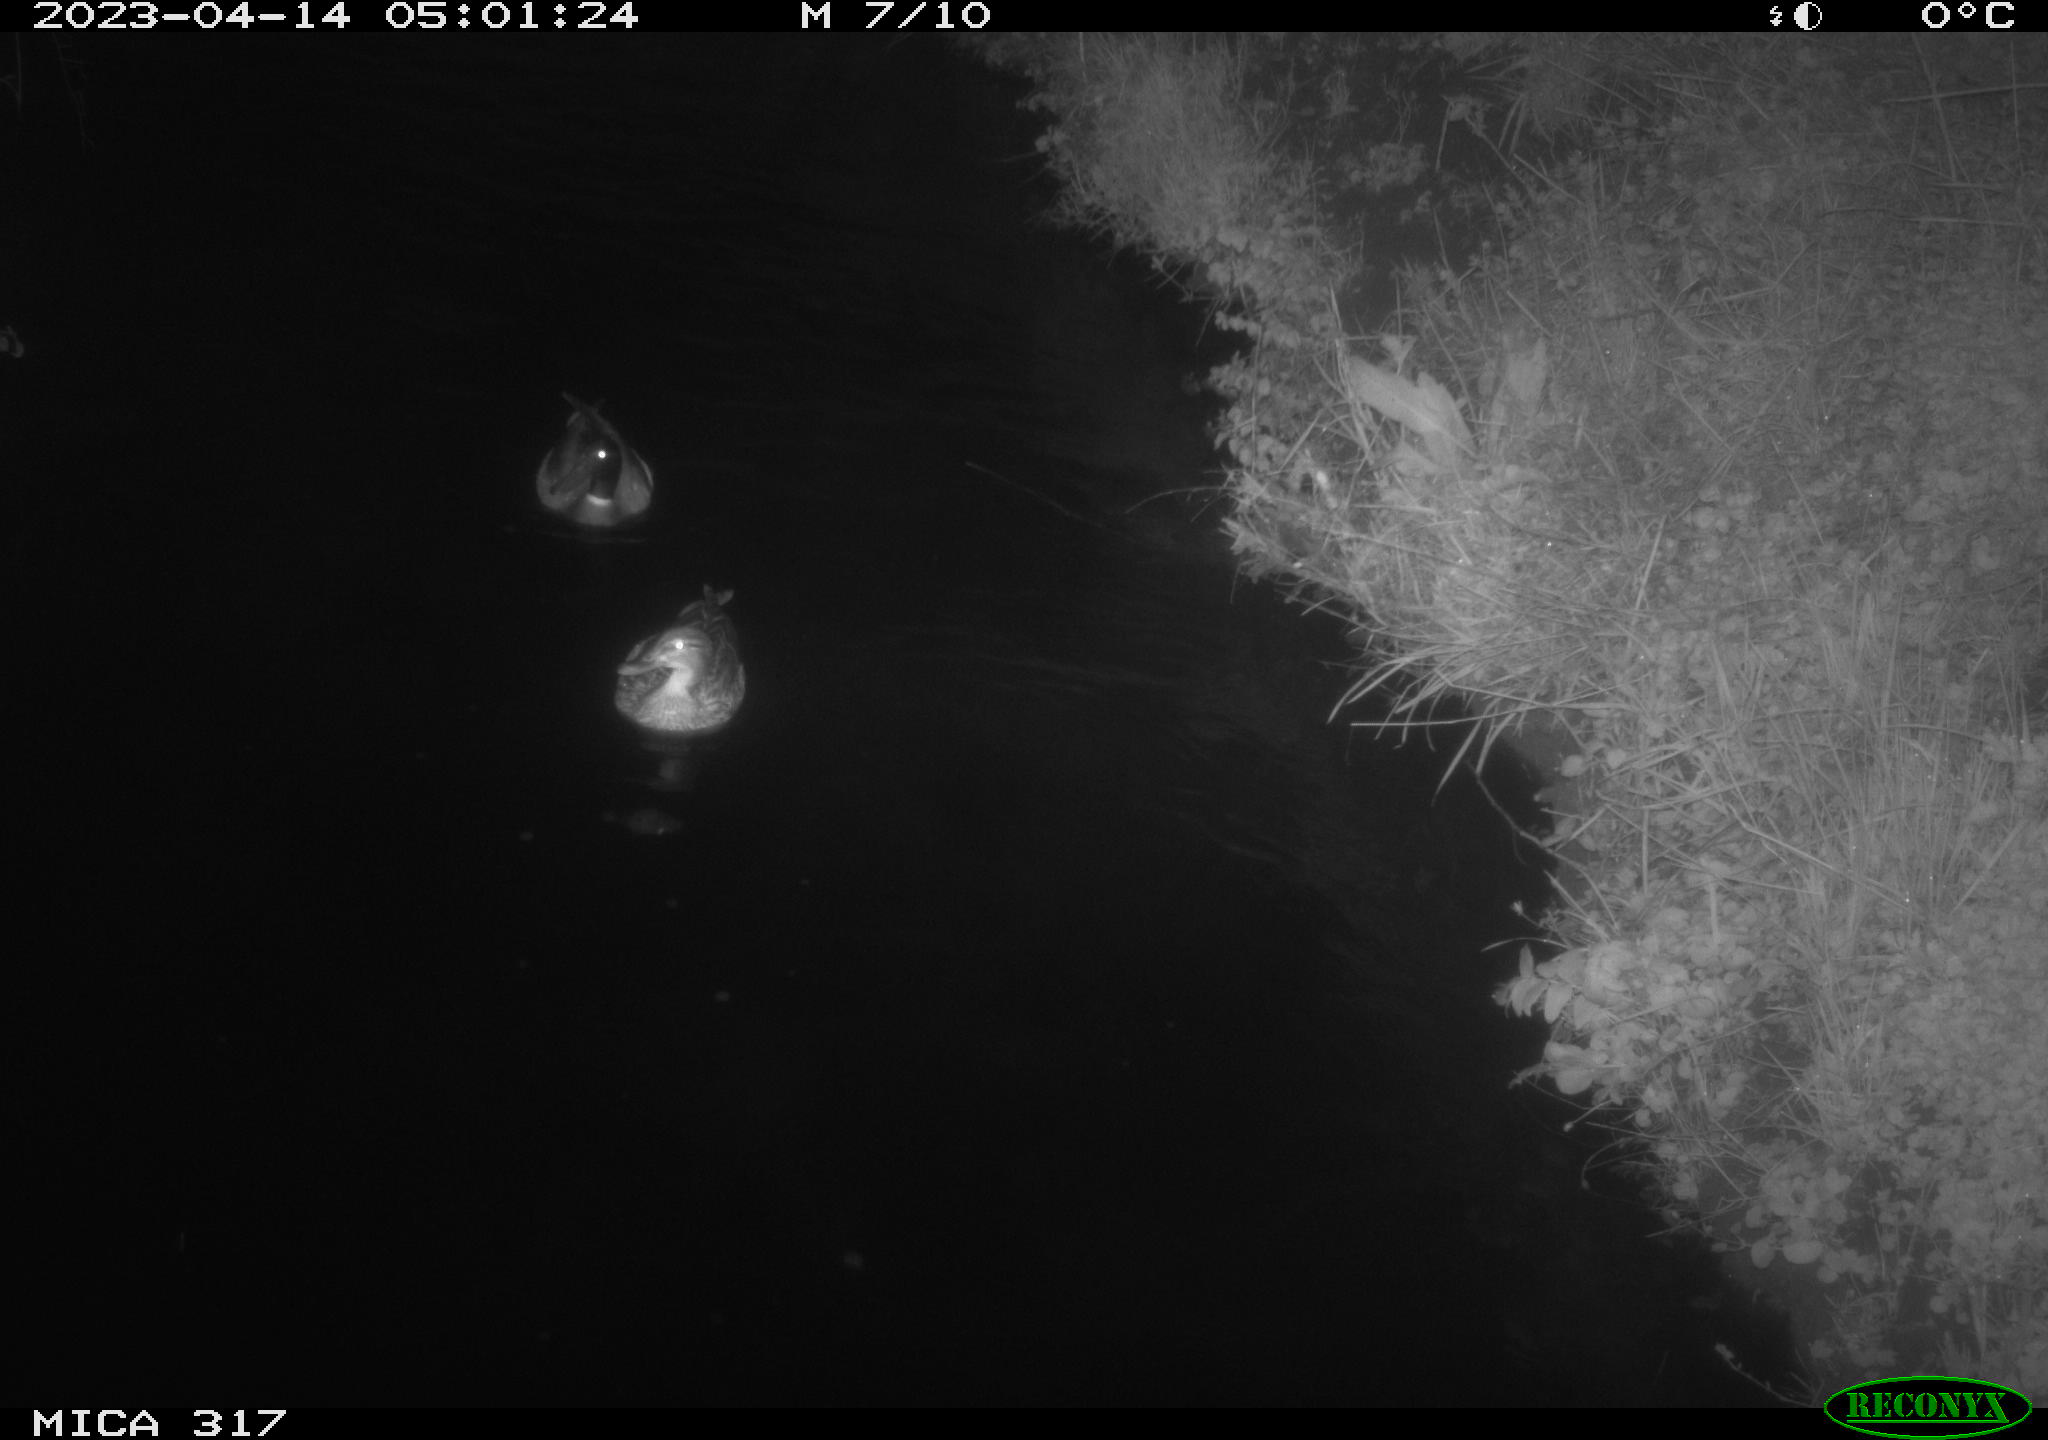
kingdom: Animalia
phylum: Chordata
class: Aves
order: Anseriformes
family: Anatidae
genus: Anas
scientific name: Anas
